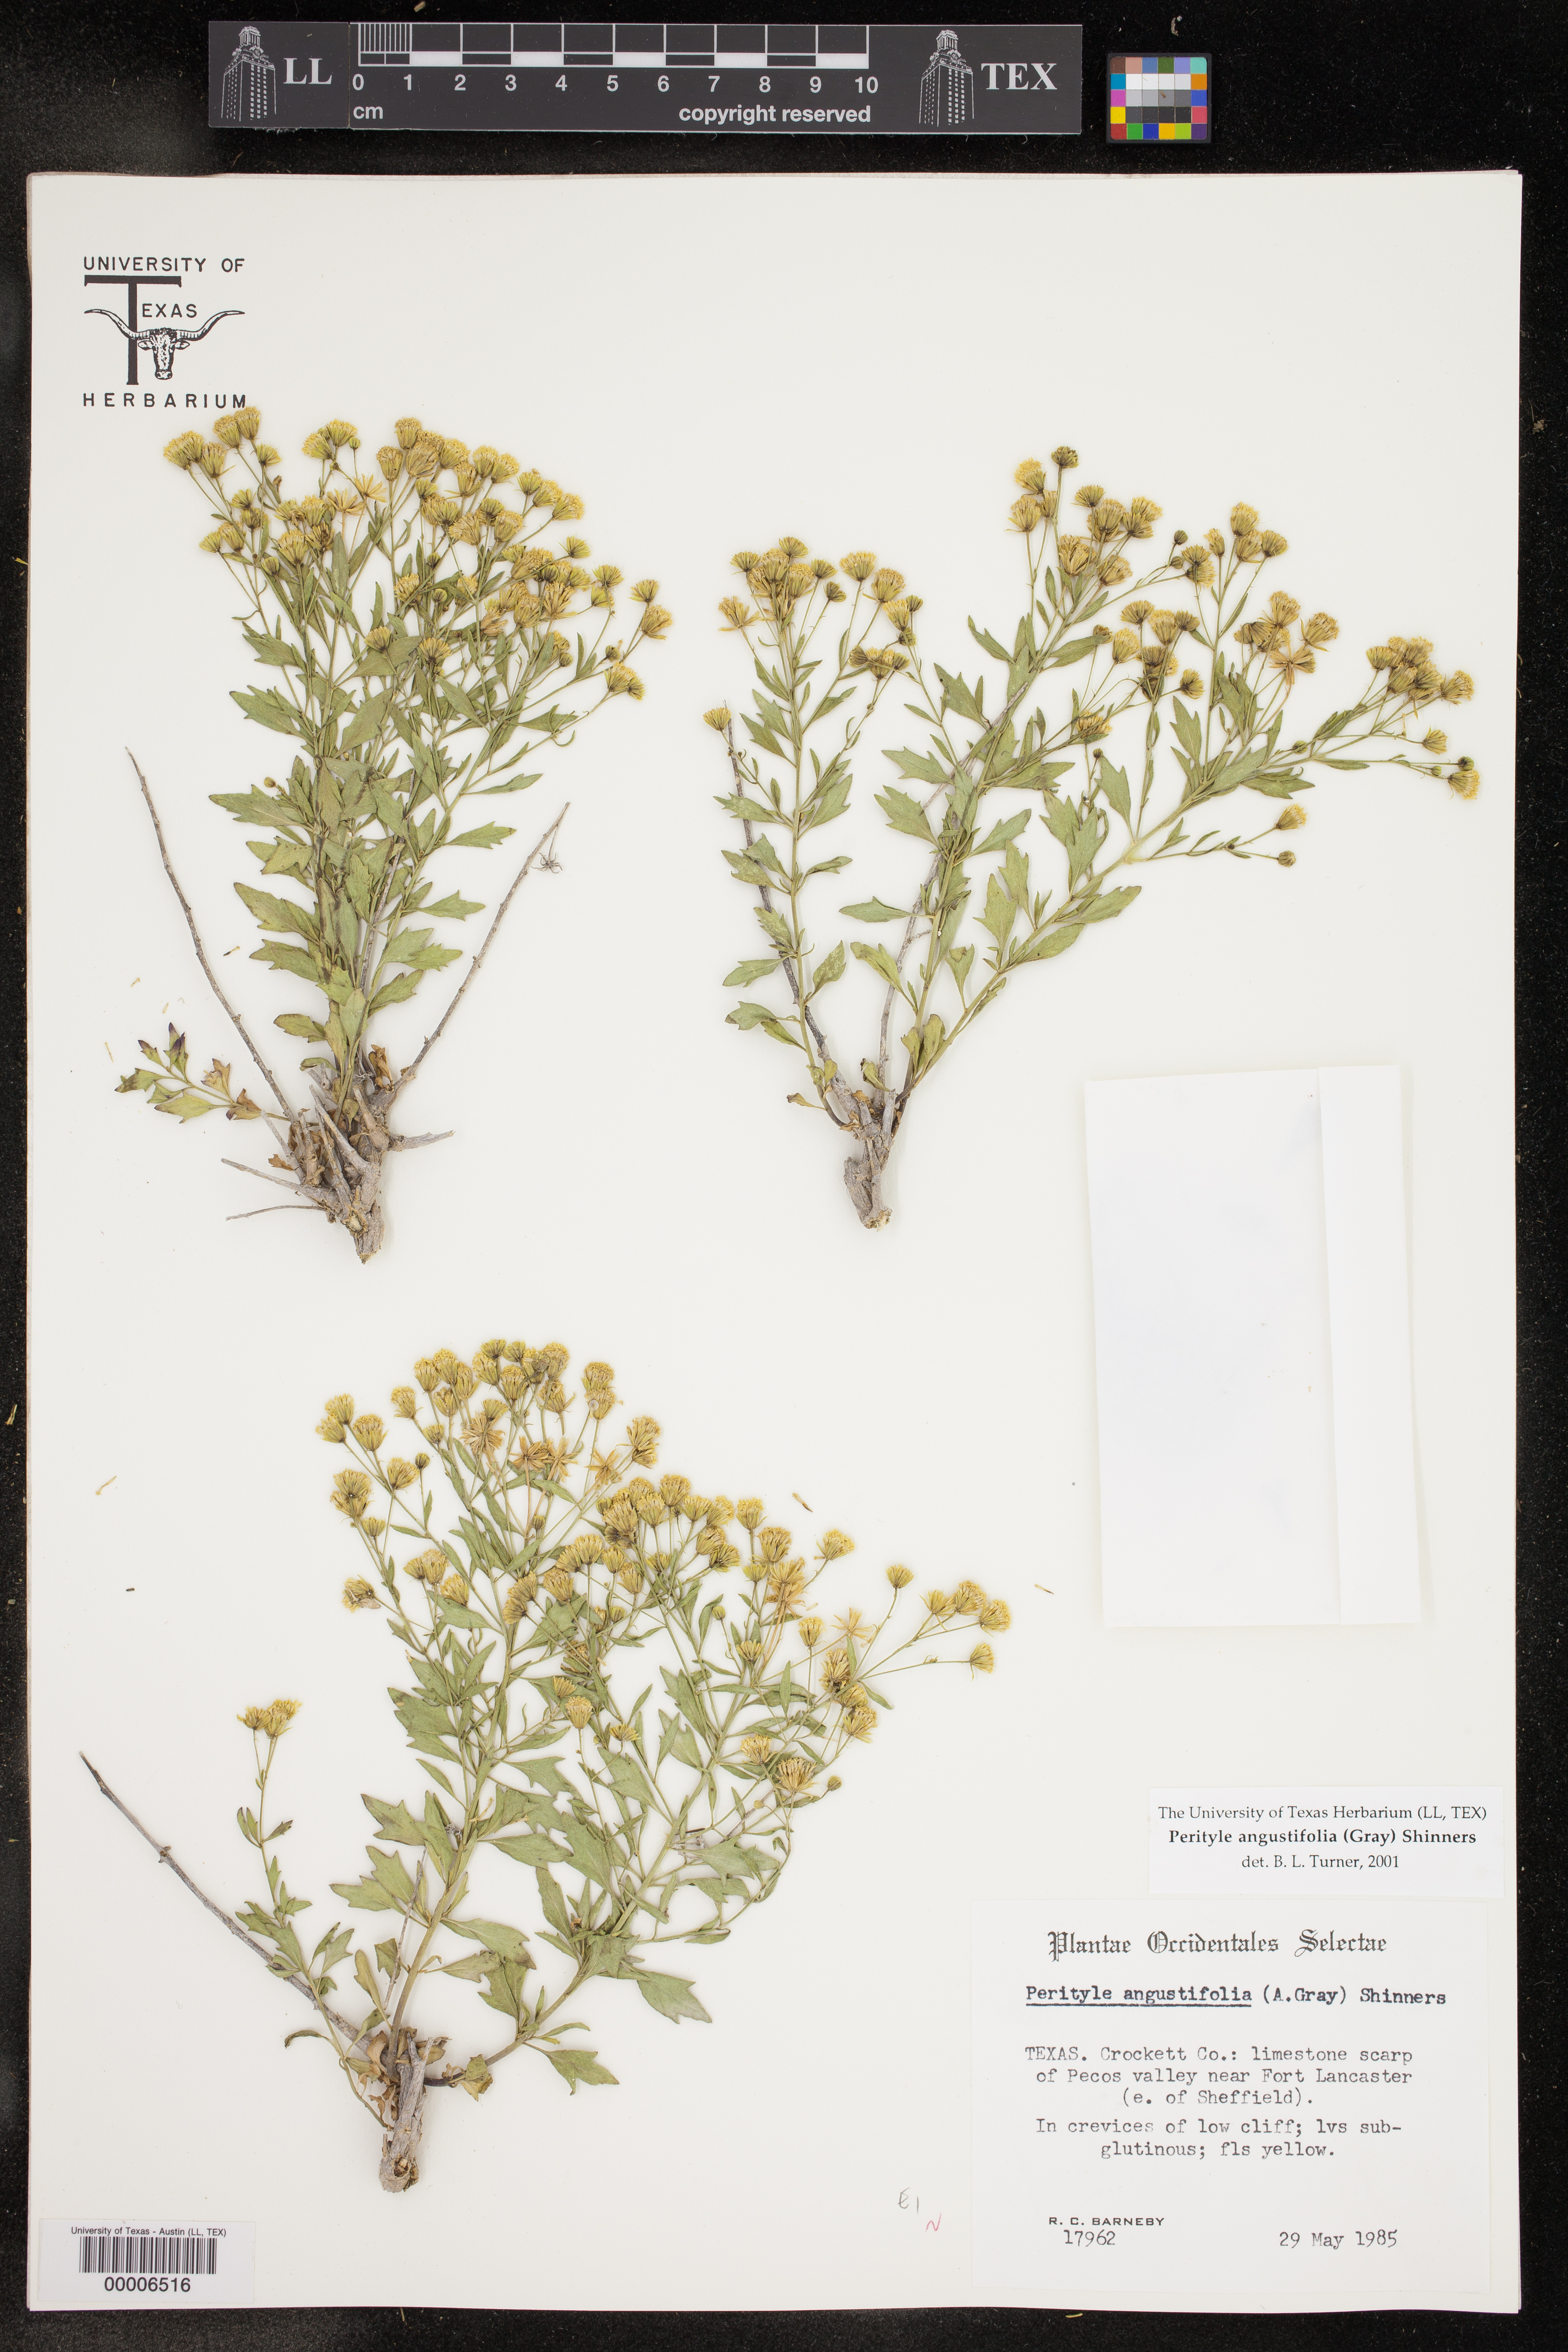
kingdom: Plantae
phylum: Tracheophyta
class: Magnoliopsida
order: Asterales
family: Asteraceae
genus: Laphamia
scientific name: Laphamia angustifolia
